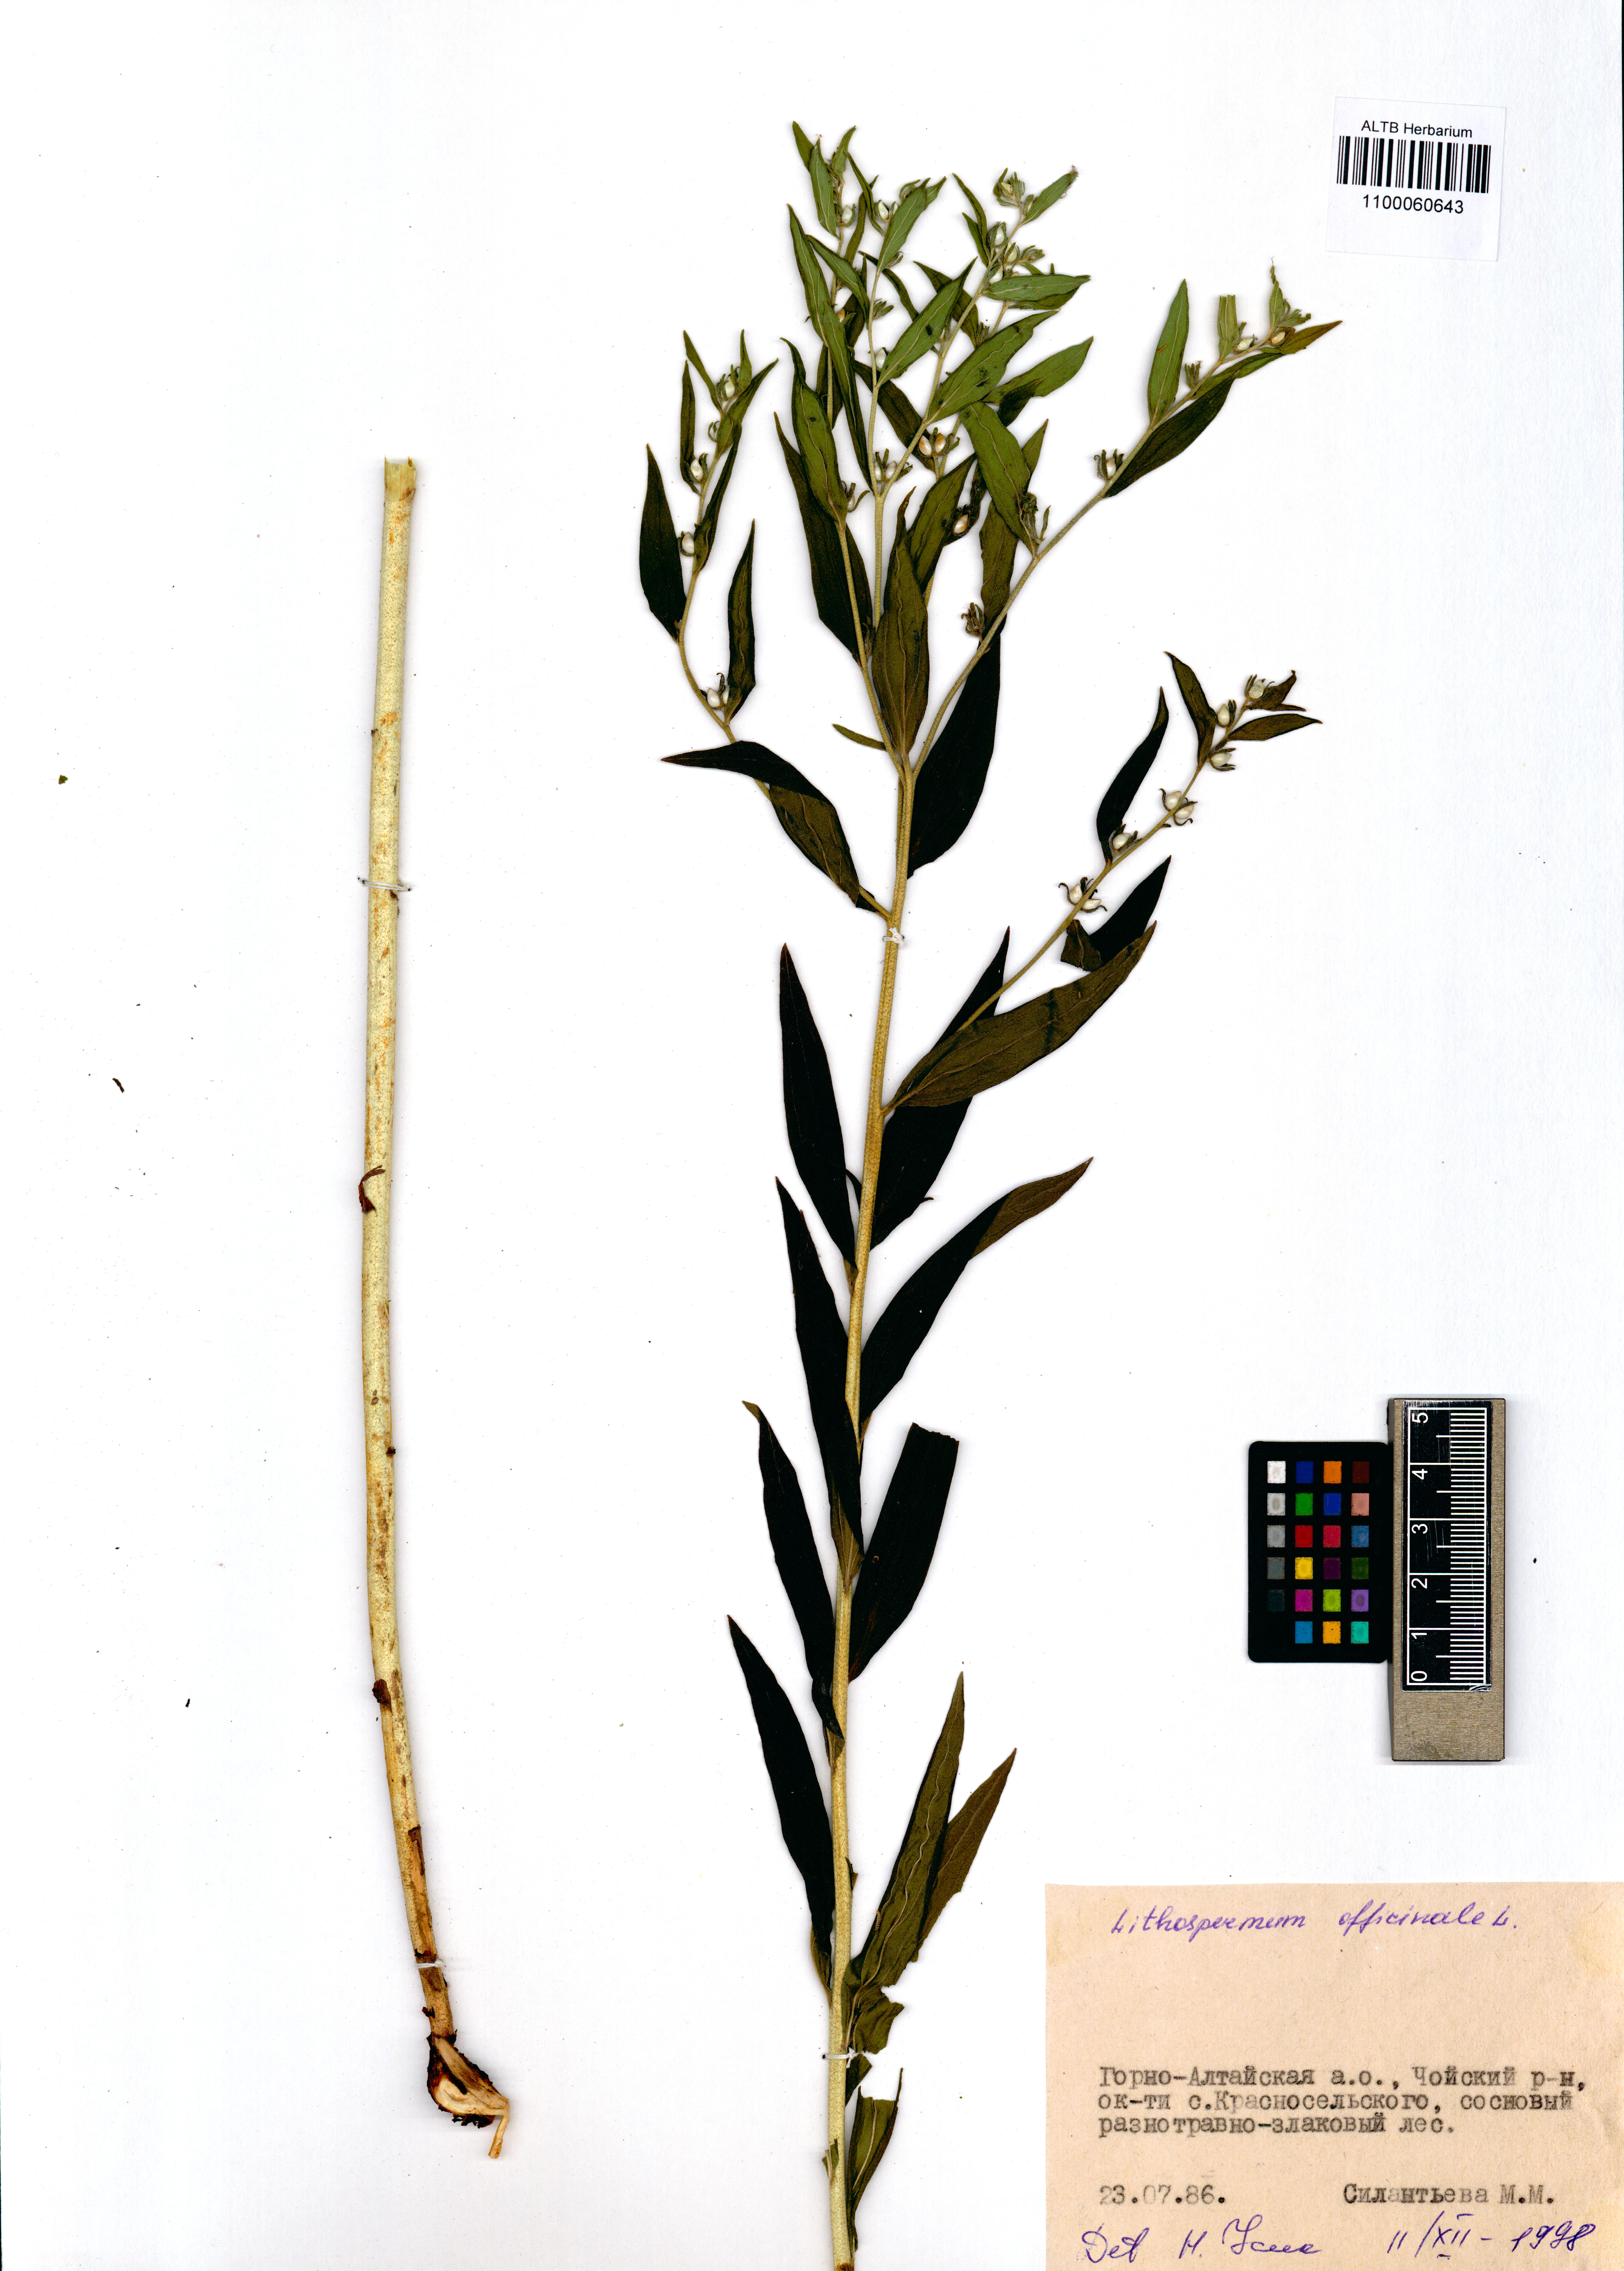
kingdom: Plantae
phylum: Tracheophyta
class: Magnoliopsida
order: Boraginales
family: Boraginaceae
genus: Lithospermum
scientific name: Lithospermum officinale
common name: Common gromwell
